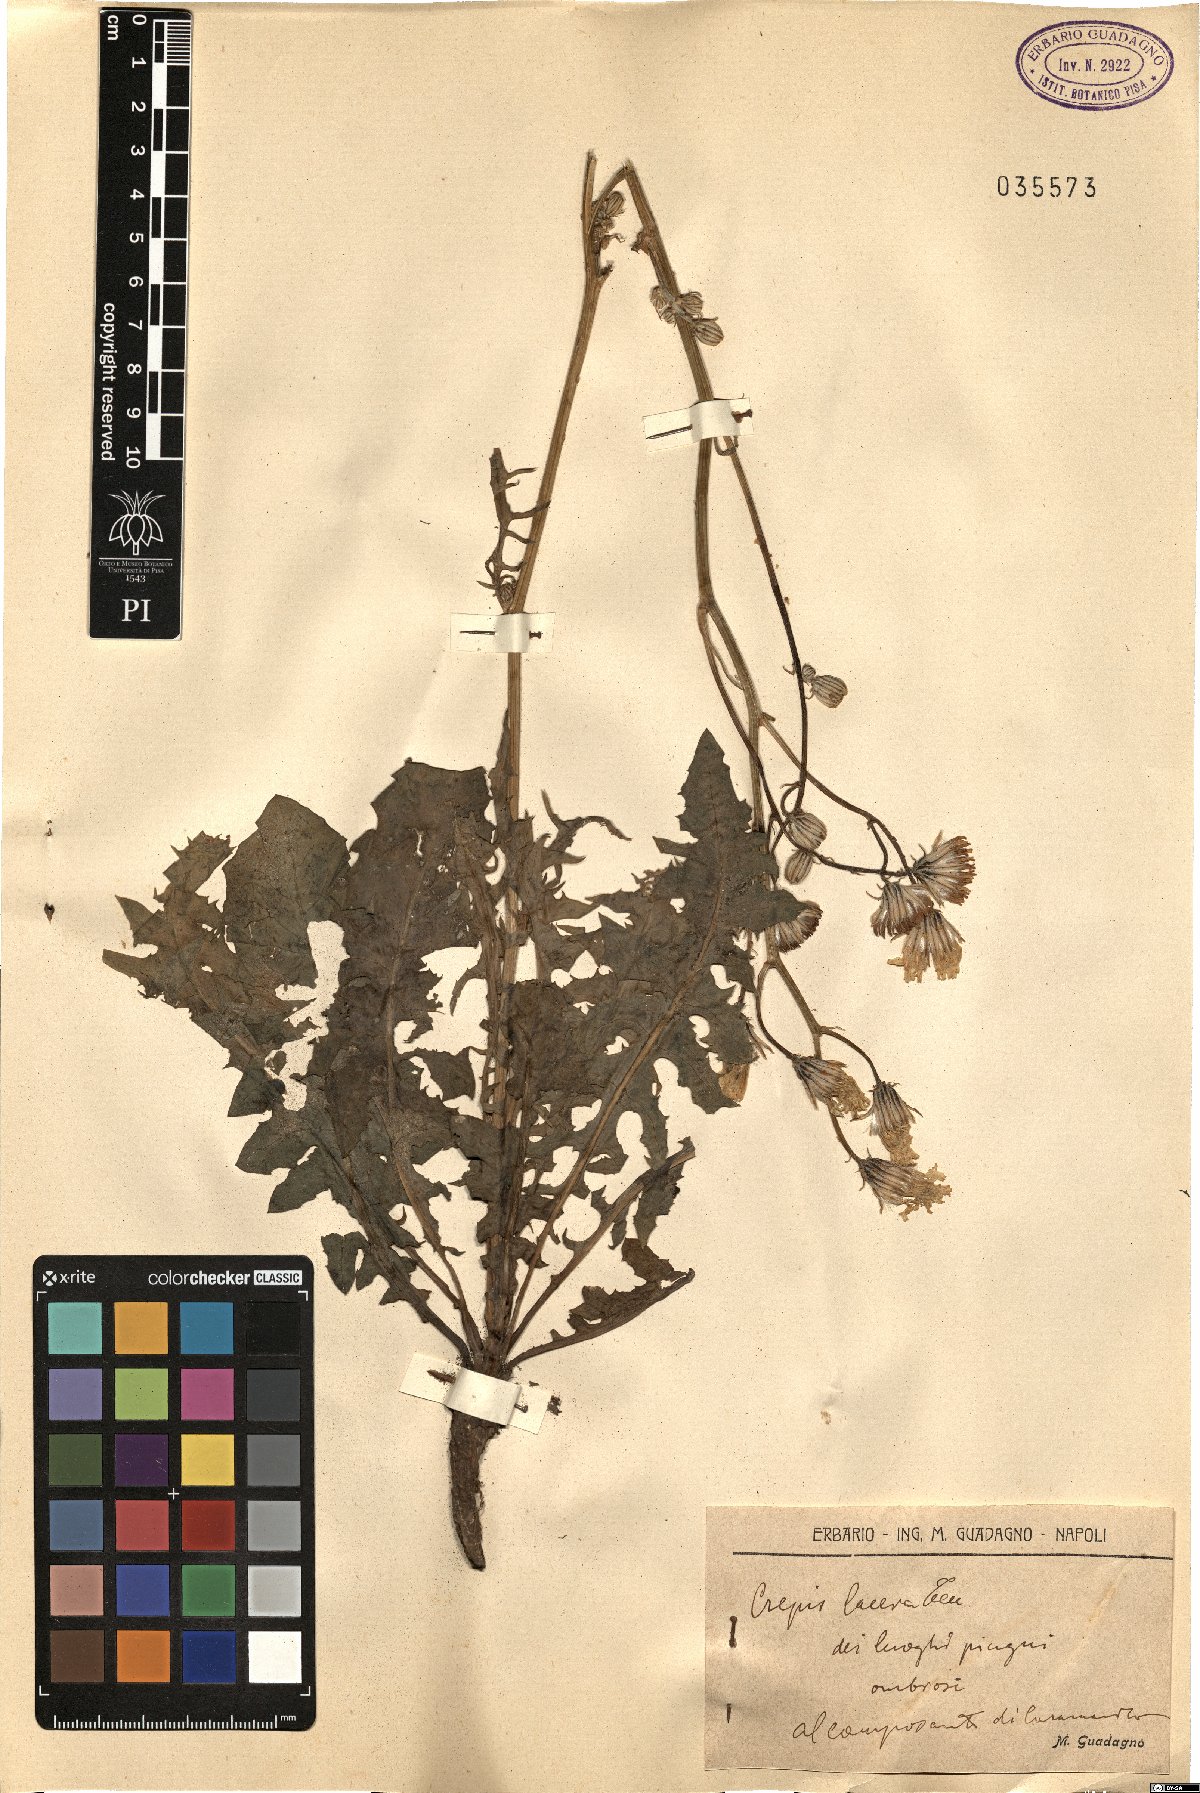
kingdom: Plantae
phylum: Tracheophyta
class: Magnoliopsida
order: Asterales
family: Asteraceae
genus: Crepis
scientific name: Crepis lacera
